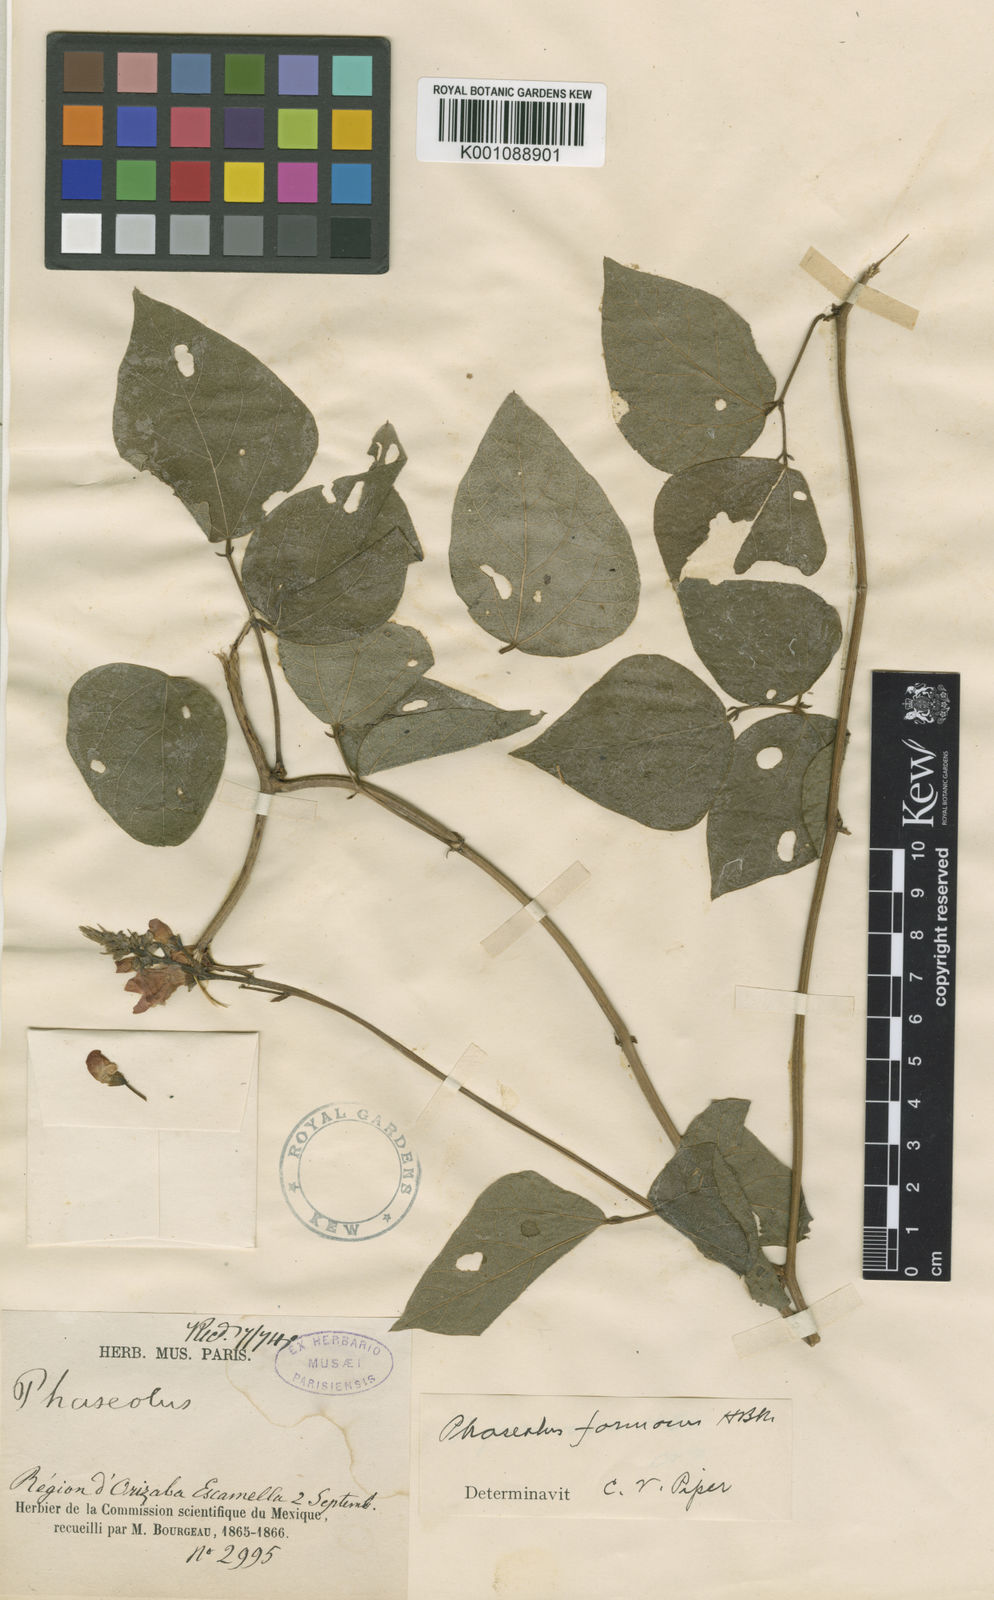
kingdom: Plantae
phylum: Tracheophyta
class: Magnoliopsida
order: Fabales
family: Fabaceae
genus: Phaseolus
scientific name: Phaseolus coccineus
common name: Runner bean
